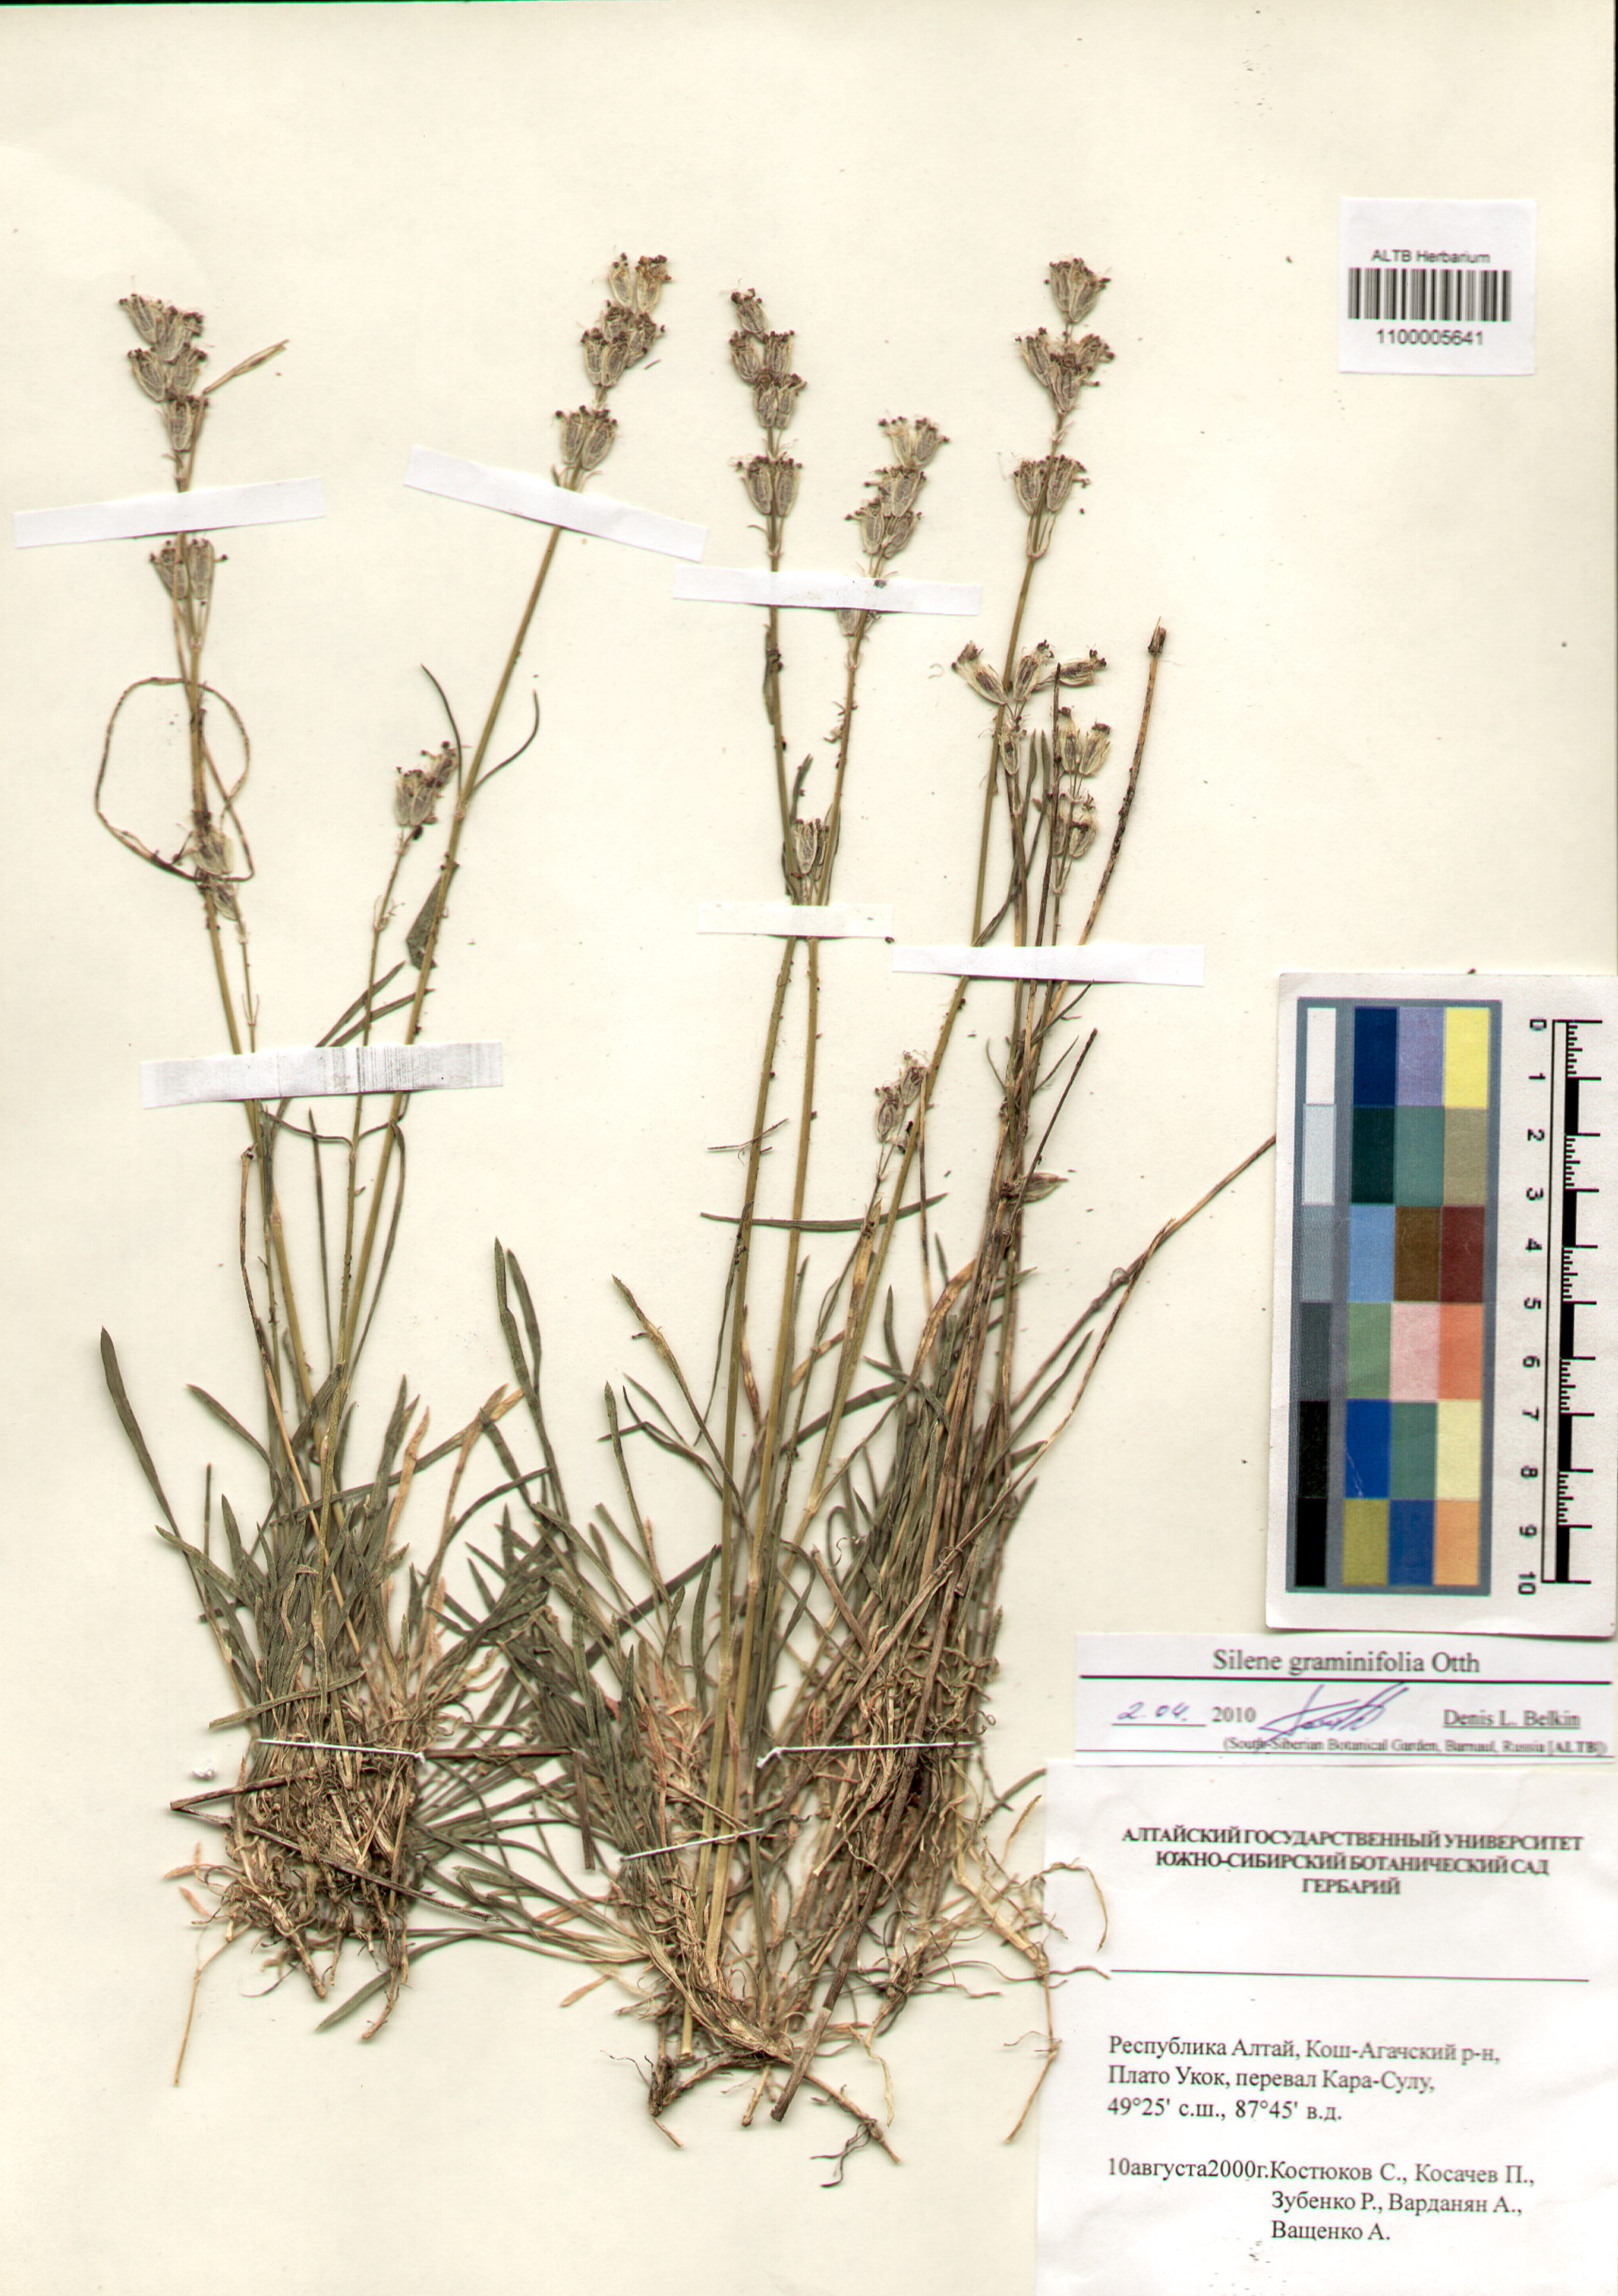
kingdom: Plantae
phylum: Tracheophyta
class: Magnoliopsida
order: Caryophyllales
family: Caryophyllaceae
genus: Silene
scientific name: Silene graminifolia
